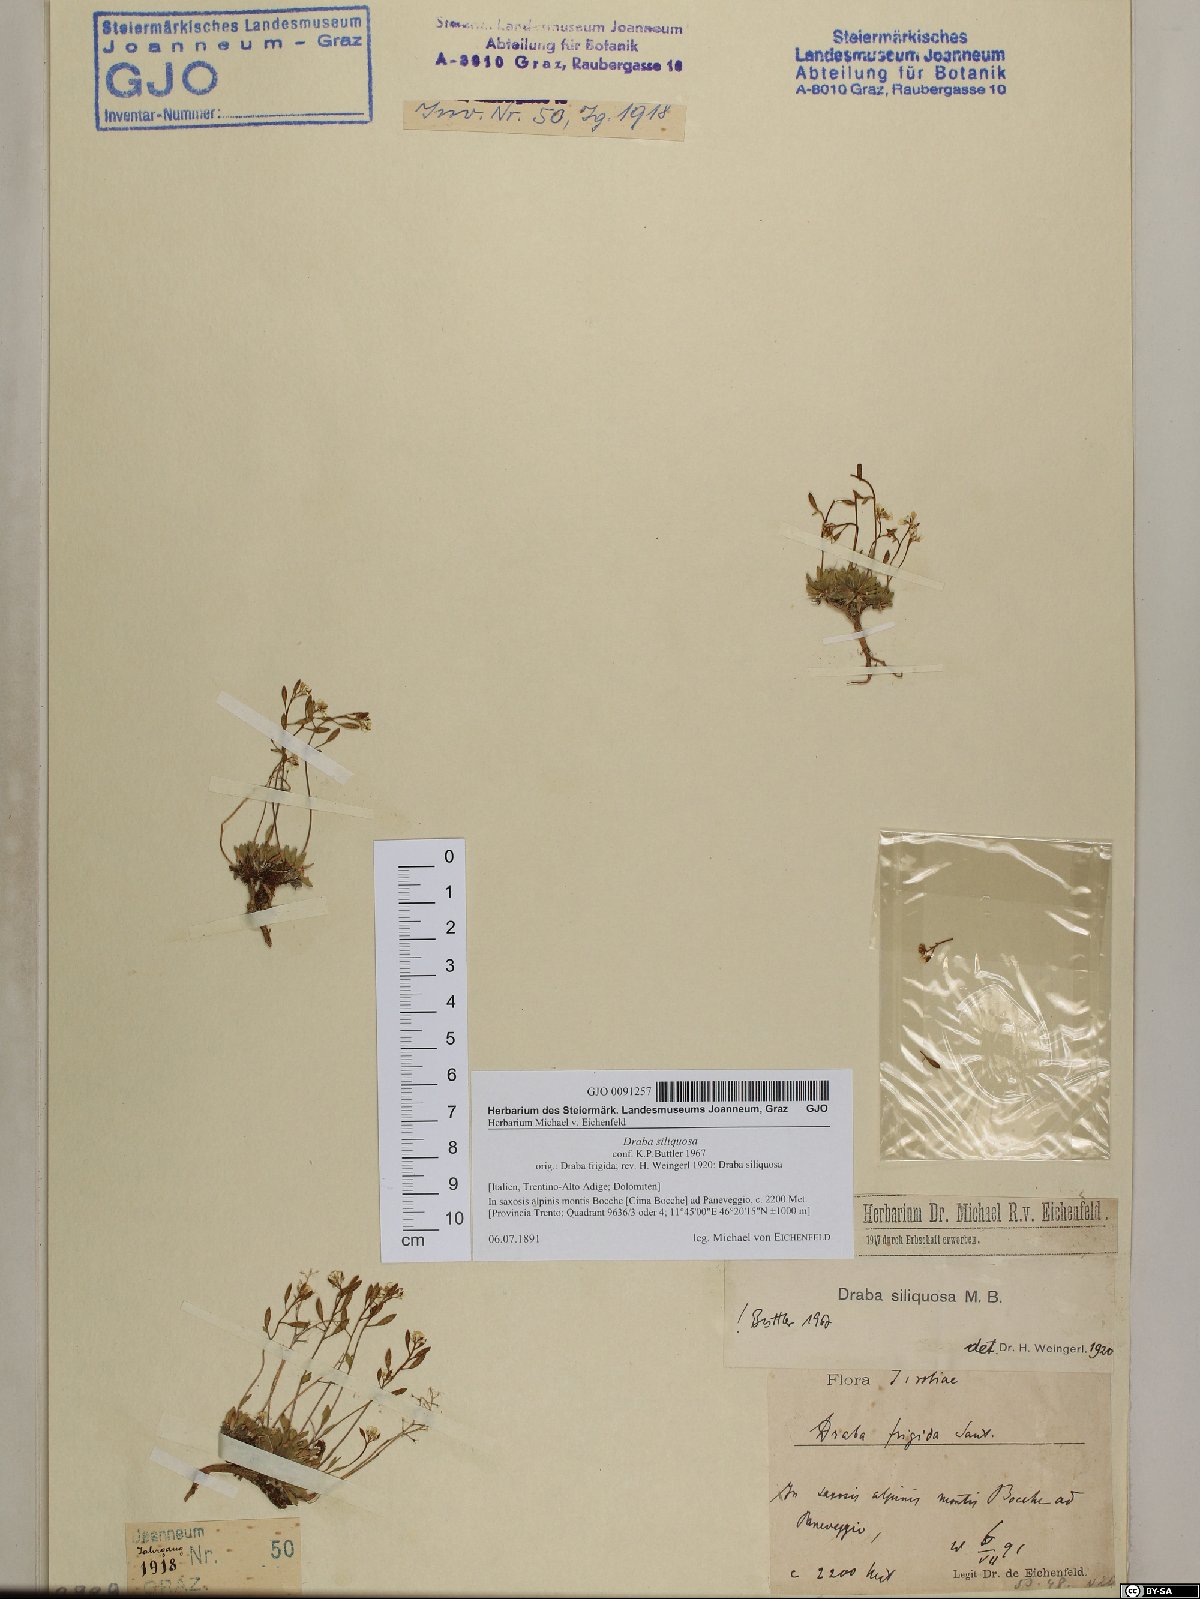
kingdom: Plantae
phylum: Tracheophyta
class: Magnoliopsida
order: Brassicales
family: Brassicaceae
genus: Draba
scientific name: Draba siliquosa
